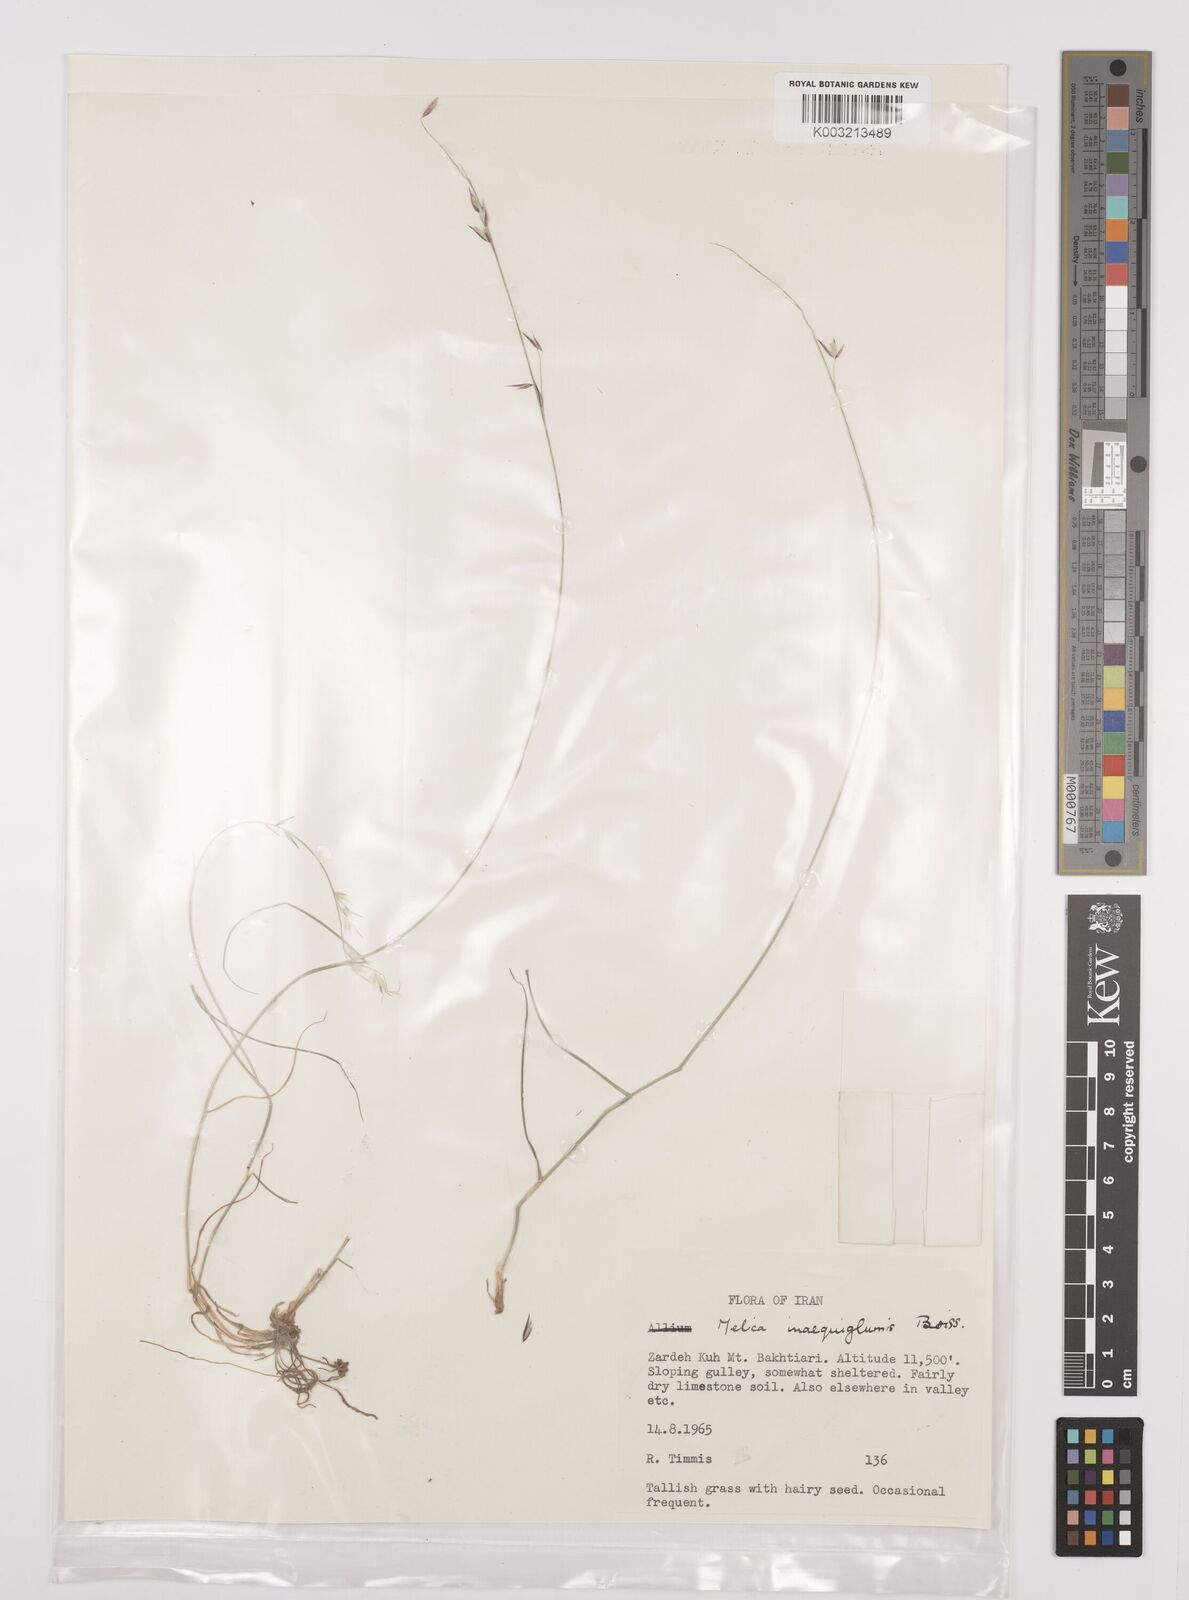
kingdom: Plantae
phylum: Tracheophyta
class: Liliopsida
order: Poales
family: Poaceae
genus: Melica
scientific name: Melica persica
